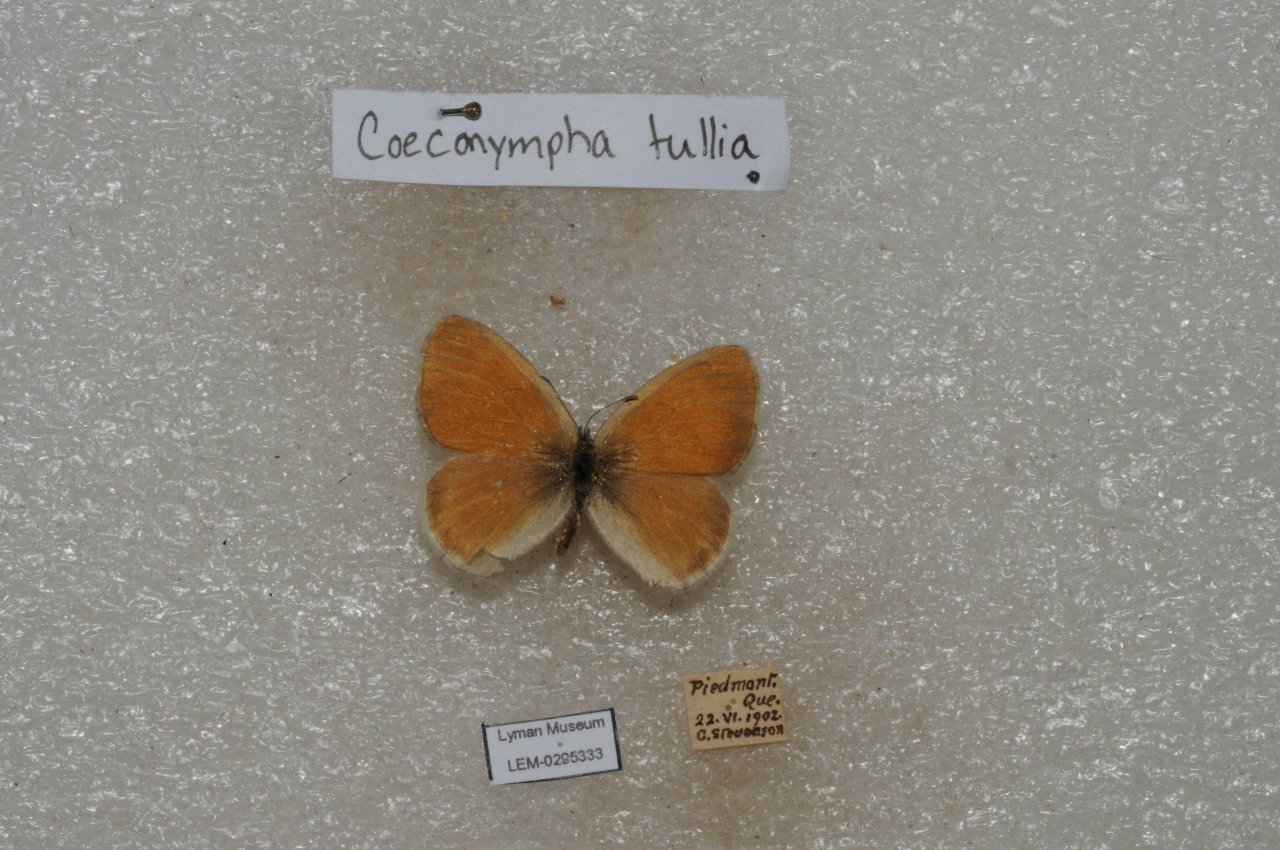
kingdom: Animalia
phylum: Arthropoda
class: Insecta
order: Lepidoptera
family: Nymphalidae
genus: Coenonympha
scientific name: Coenonympha tullia
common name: Large Heath
